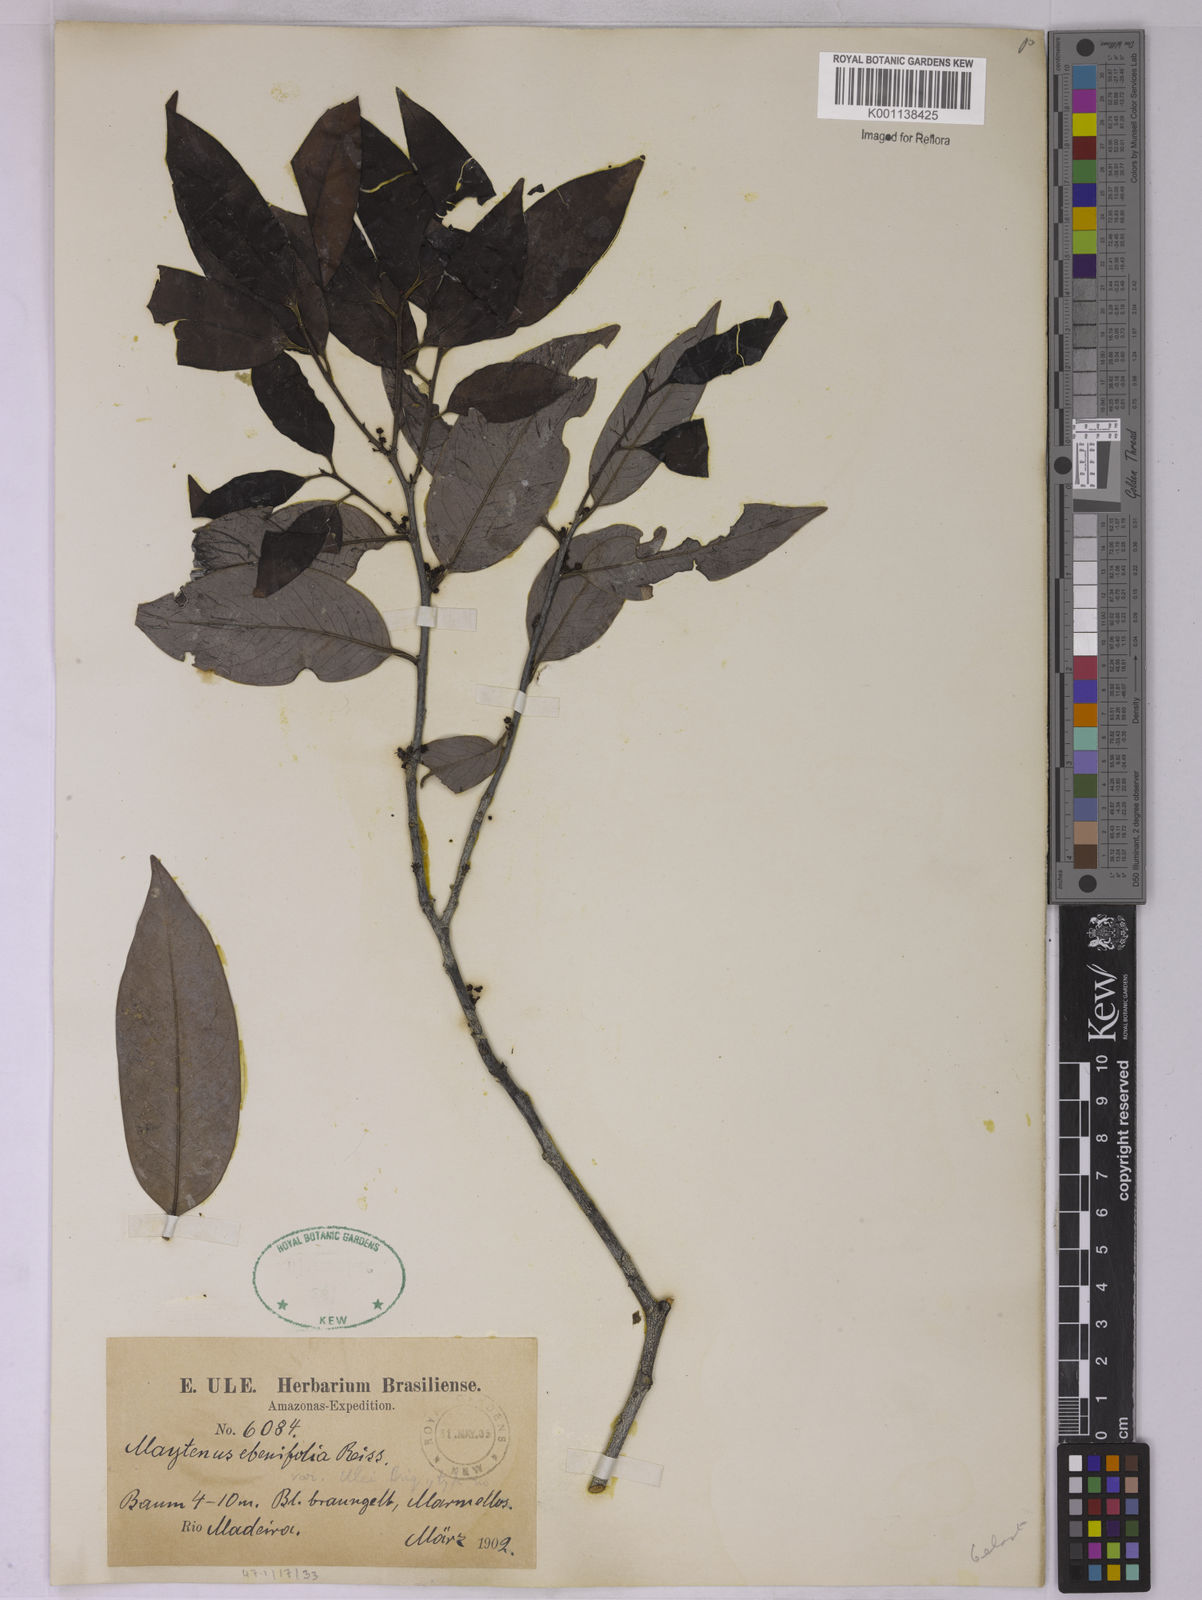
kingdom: Plantae
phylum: Tracheophyta
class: Magnoliopsida
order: Celastrales
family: Celastraceae
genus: Monteverdia
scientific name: Monteverdia ebenifolia
